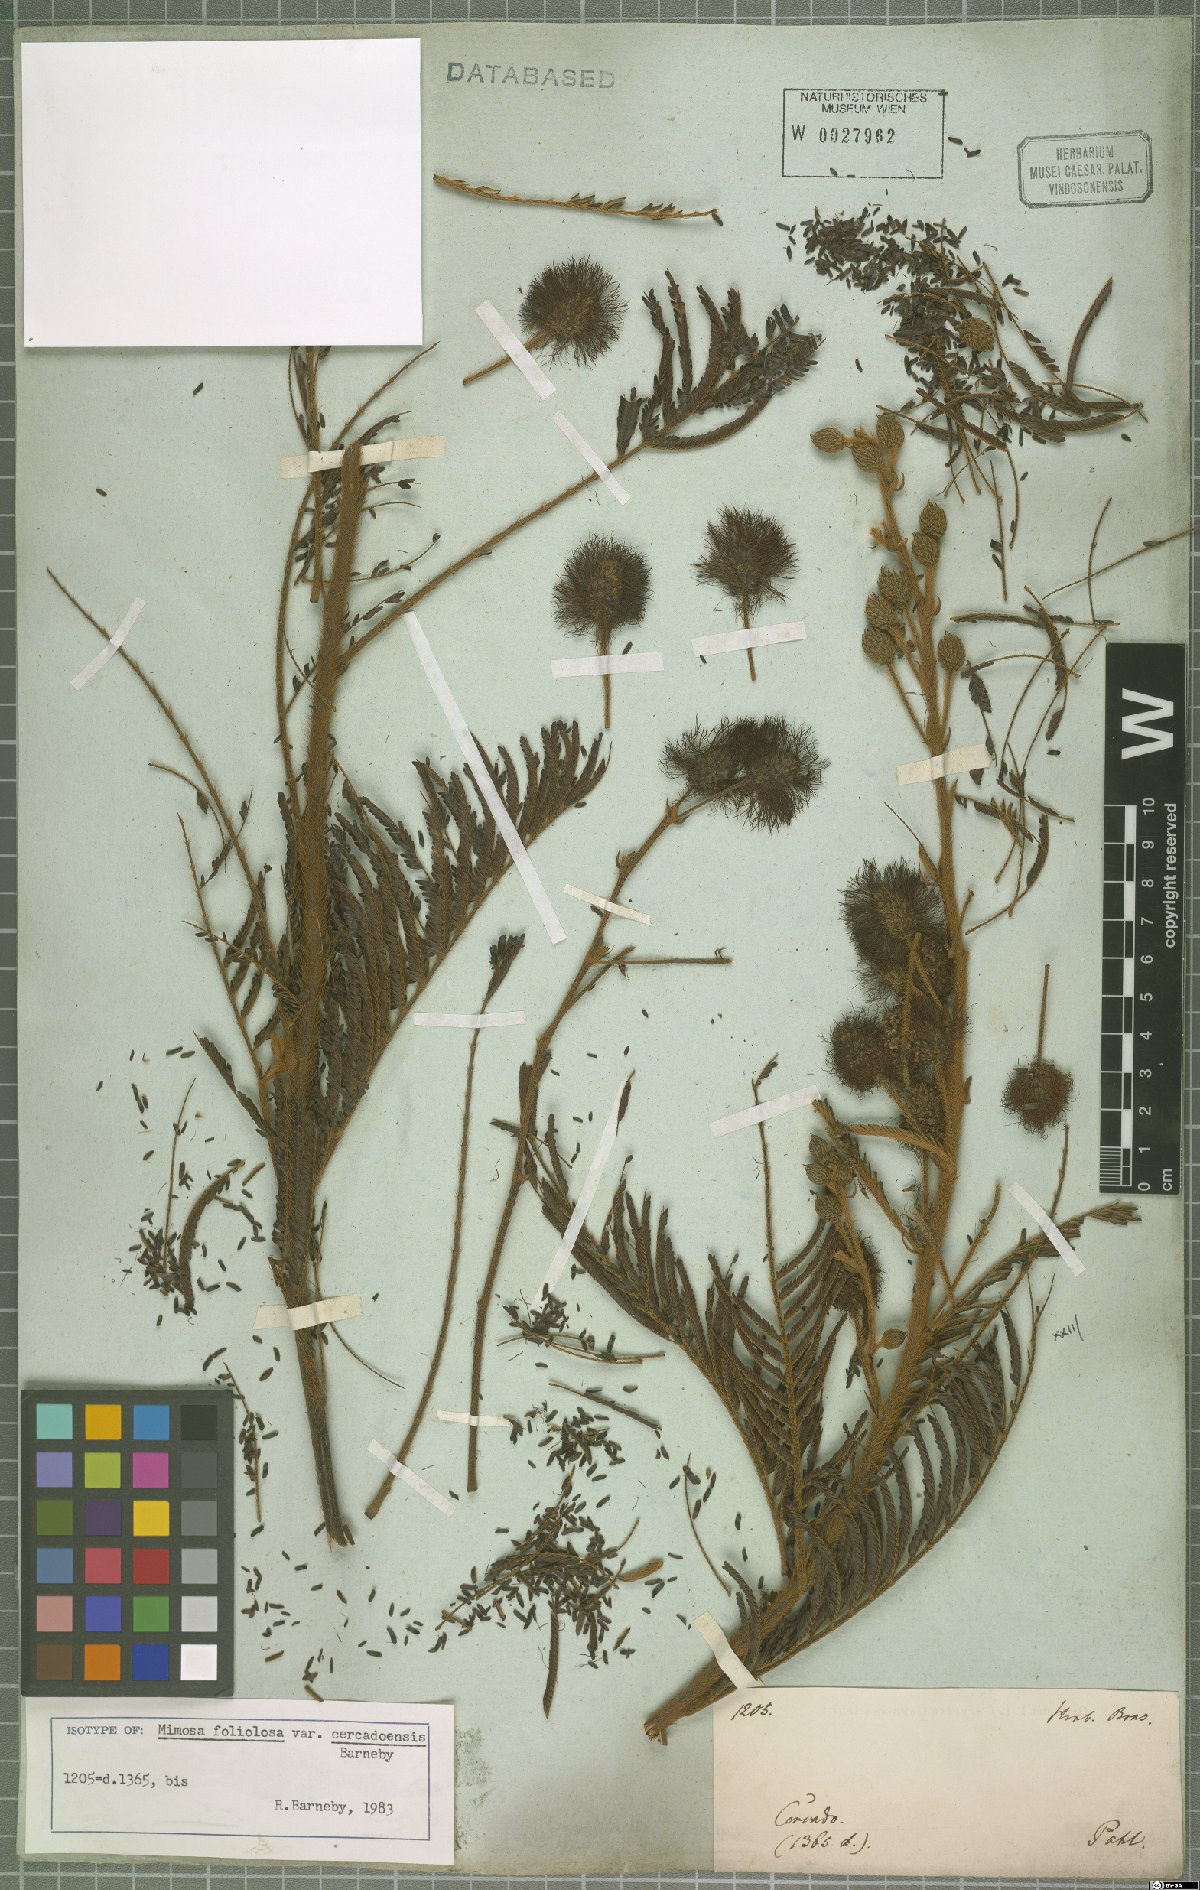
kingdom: Plantae
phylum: Tracheophyta
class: Magnoliopsida
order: Fabales
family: Fabaceae
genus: Mimosa
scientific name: Mimosa foliolosa
